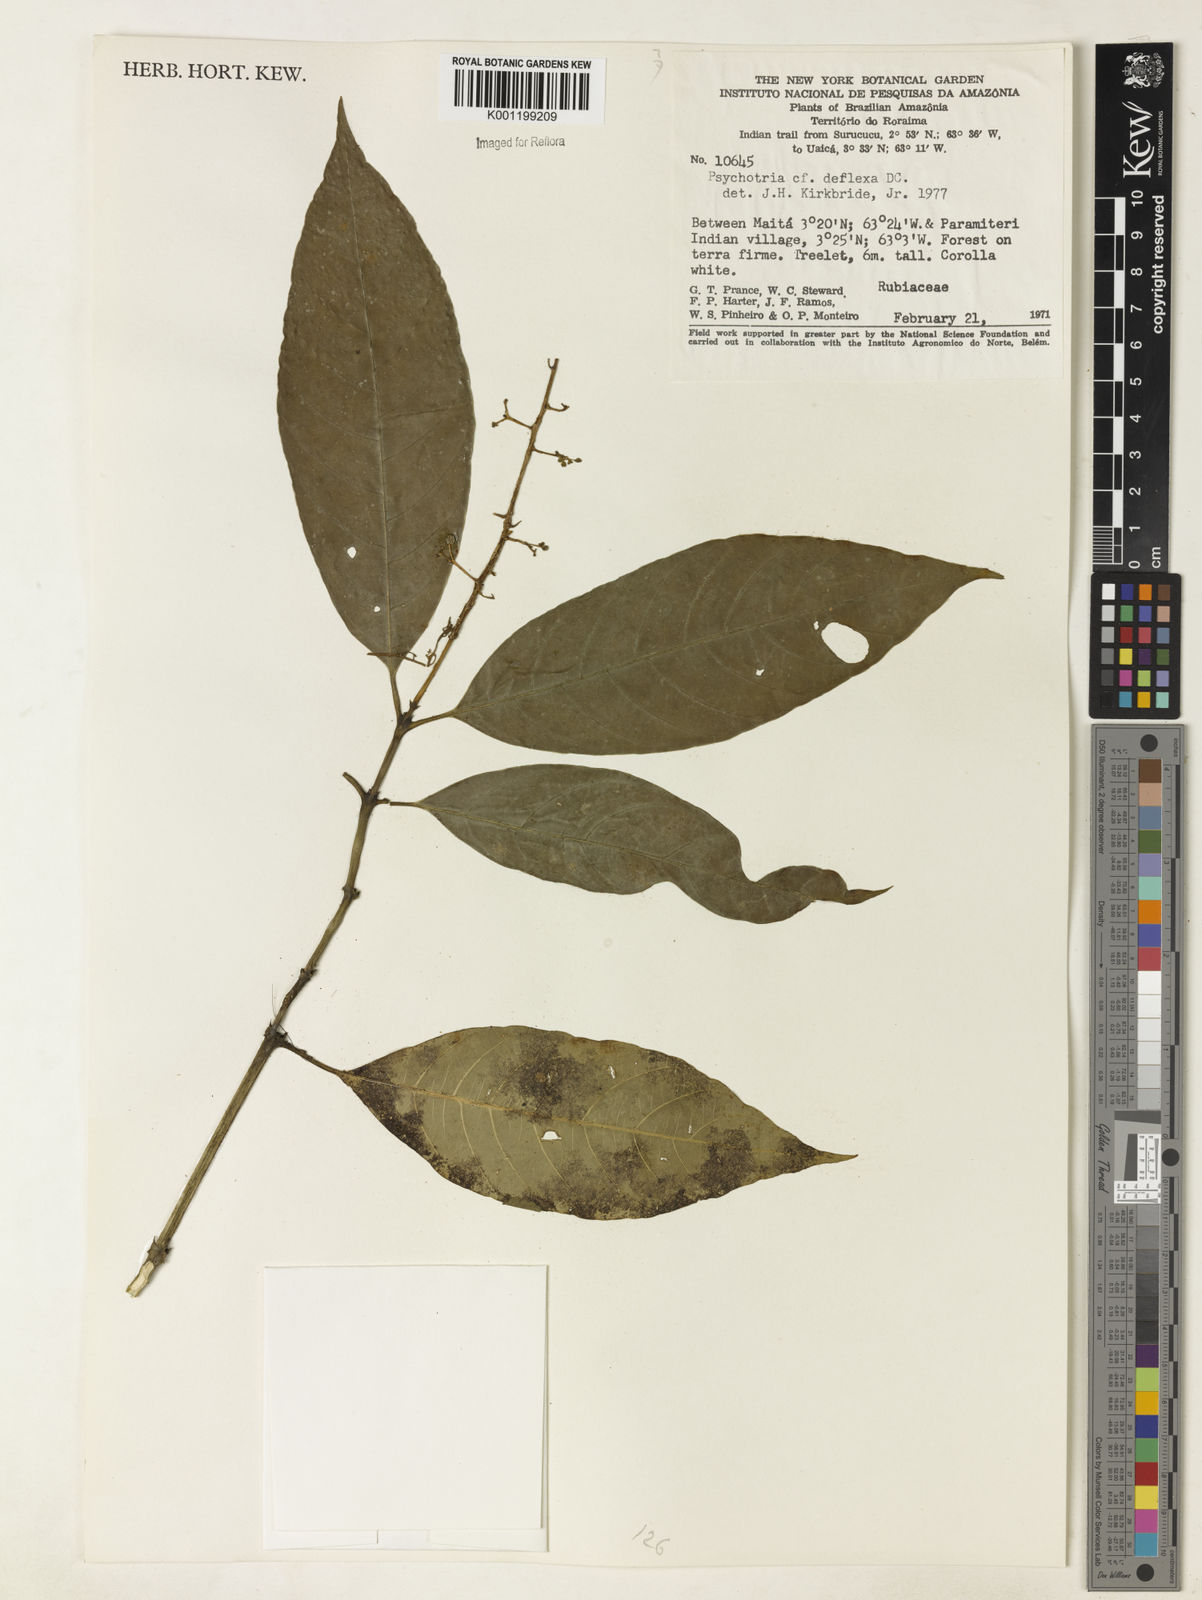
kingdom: Plantae
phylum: Tracheophyta
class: Magnoliopsida
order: Gentianales
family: Rubiaceae
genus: Palicourea
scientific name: Palicourea deflexa
